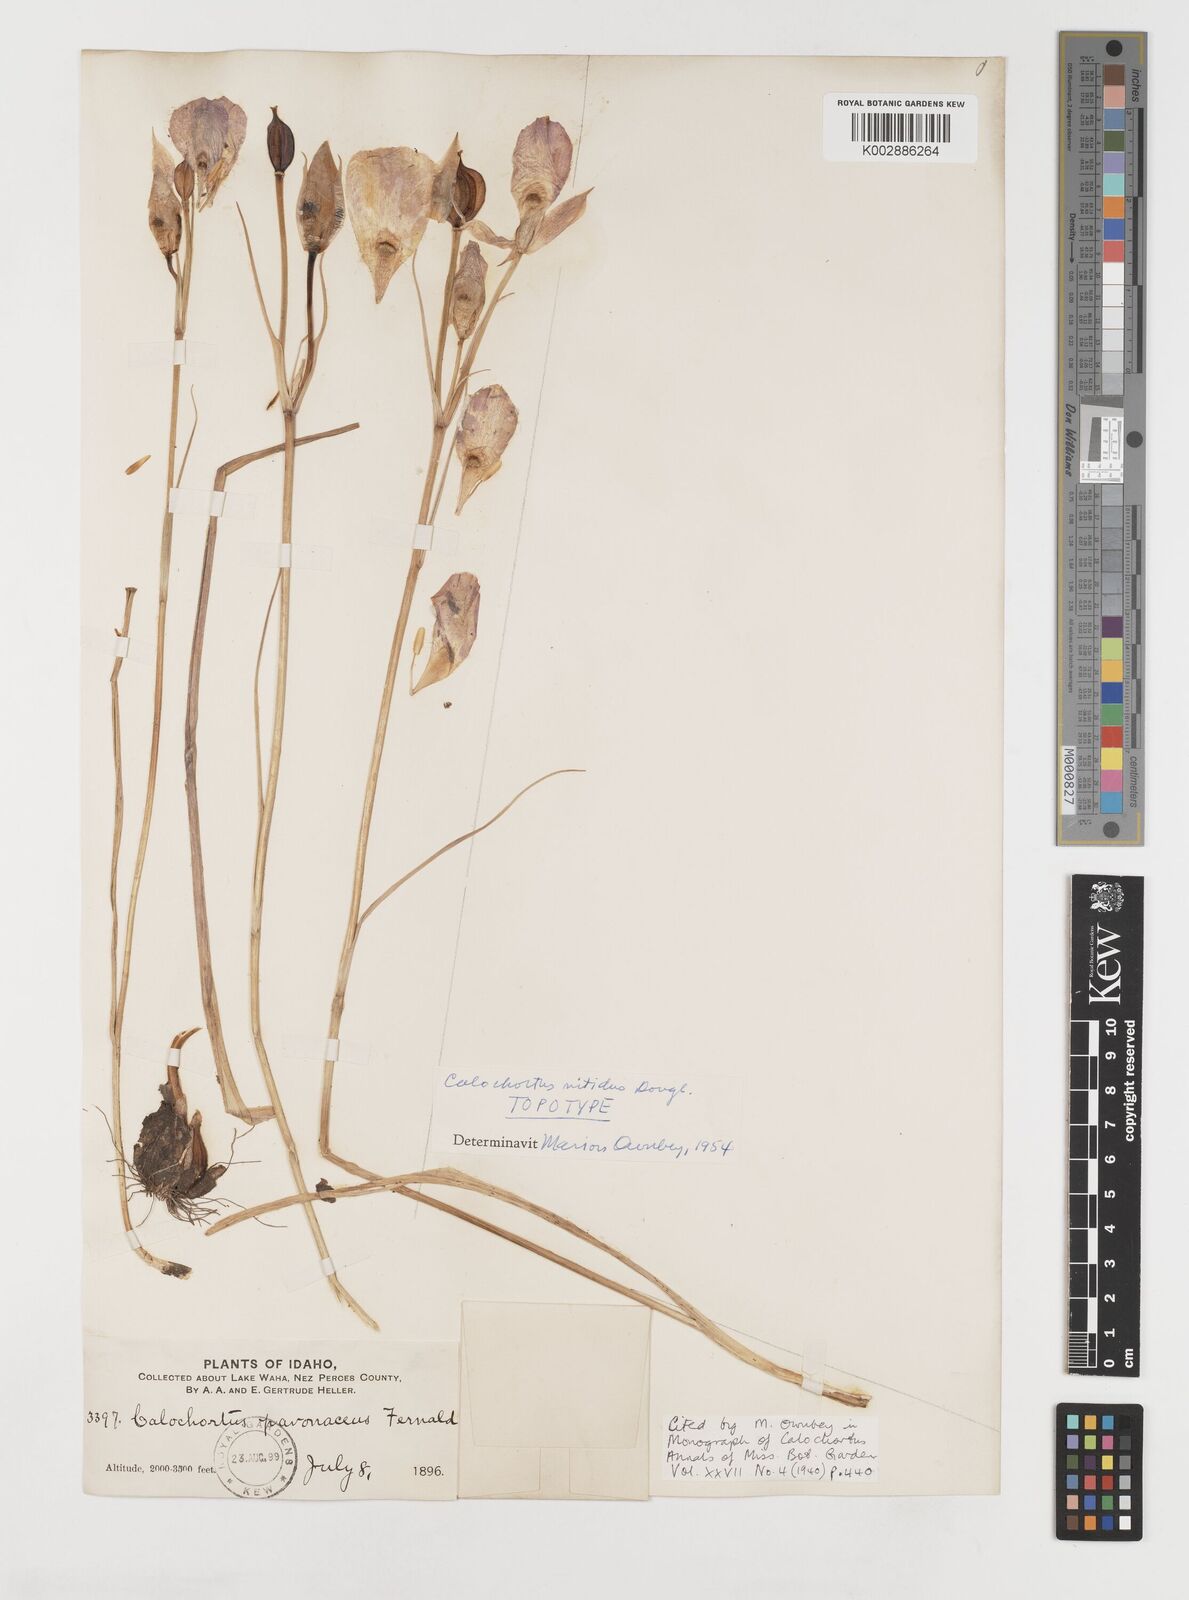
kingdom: Plantae
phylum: Tracheophyta
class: Liliopsida
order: Liliales
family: Liliaceae
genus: Calochortus
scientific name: Calochortus monophyllus
